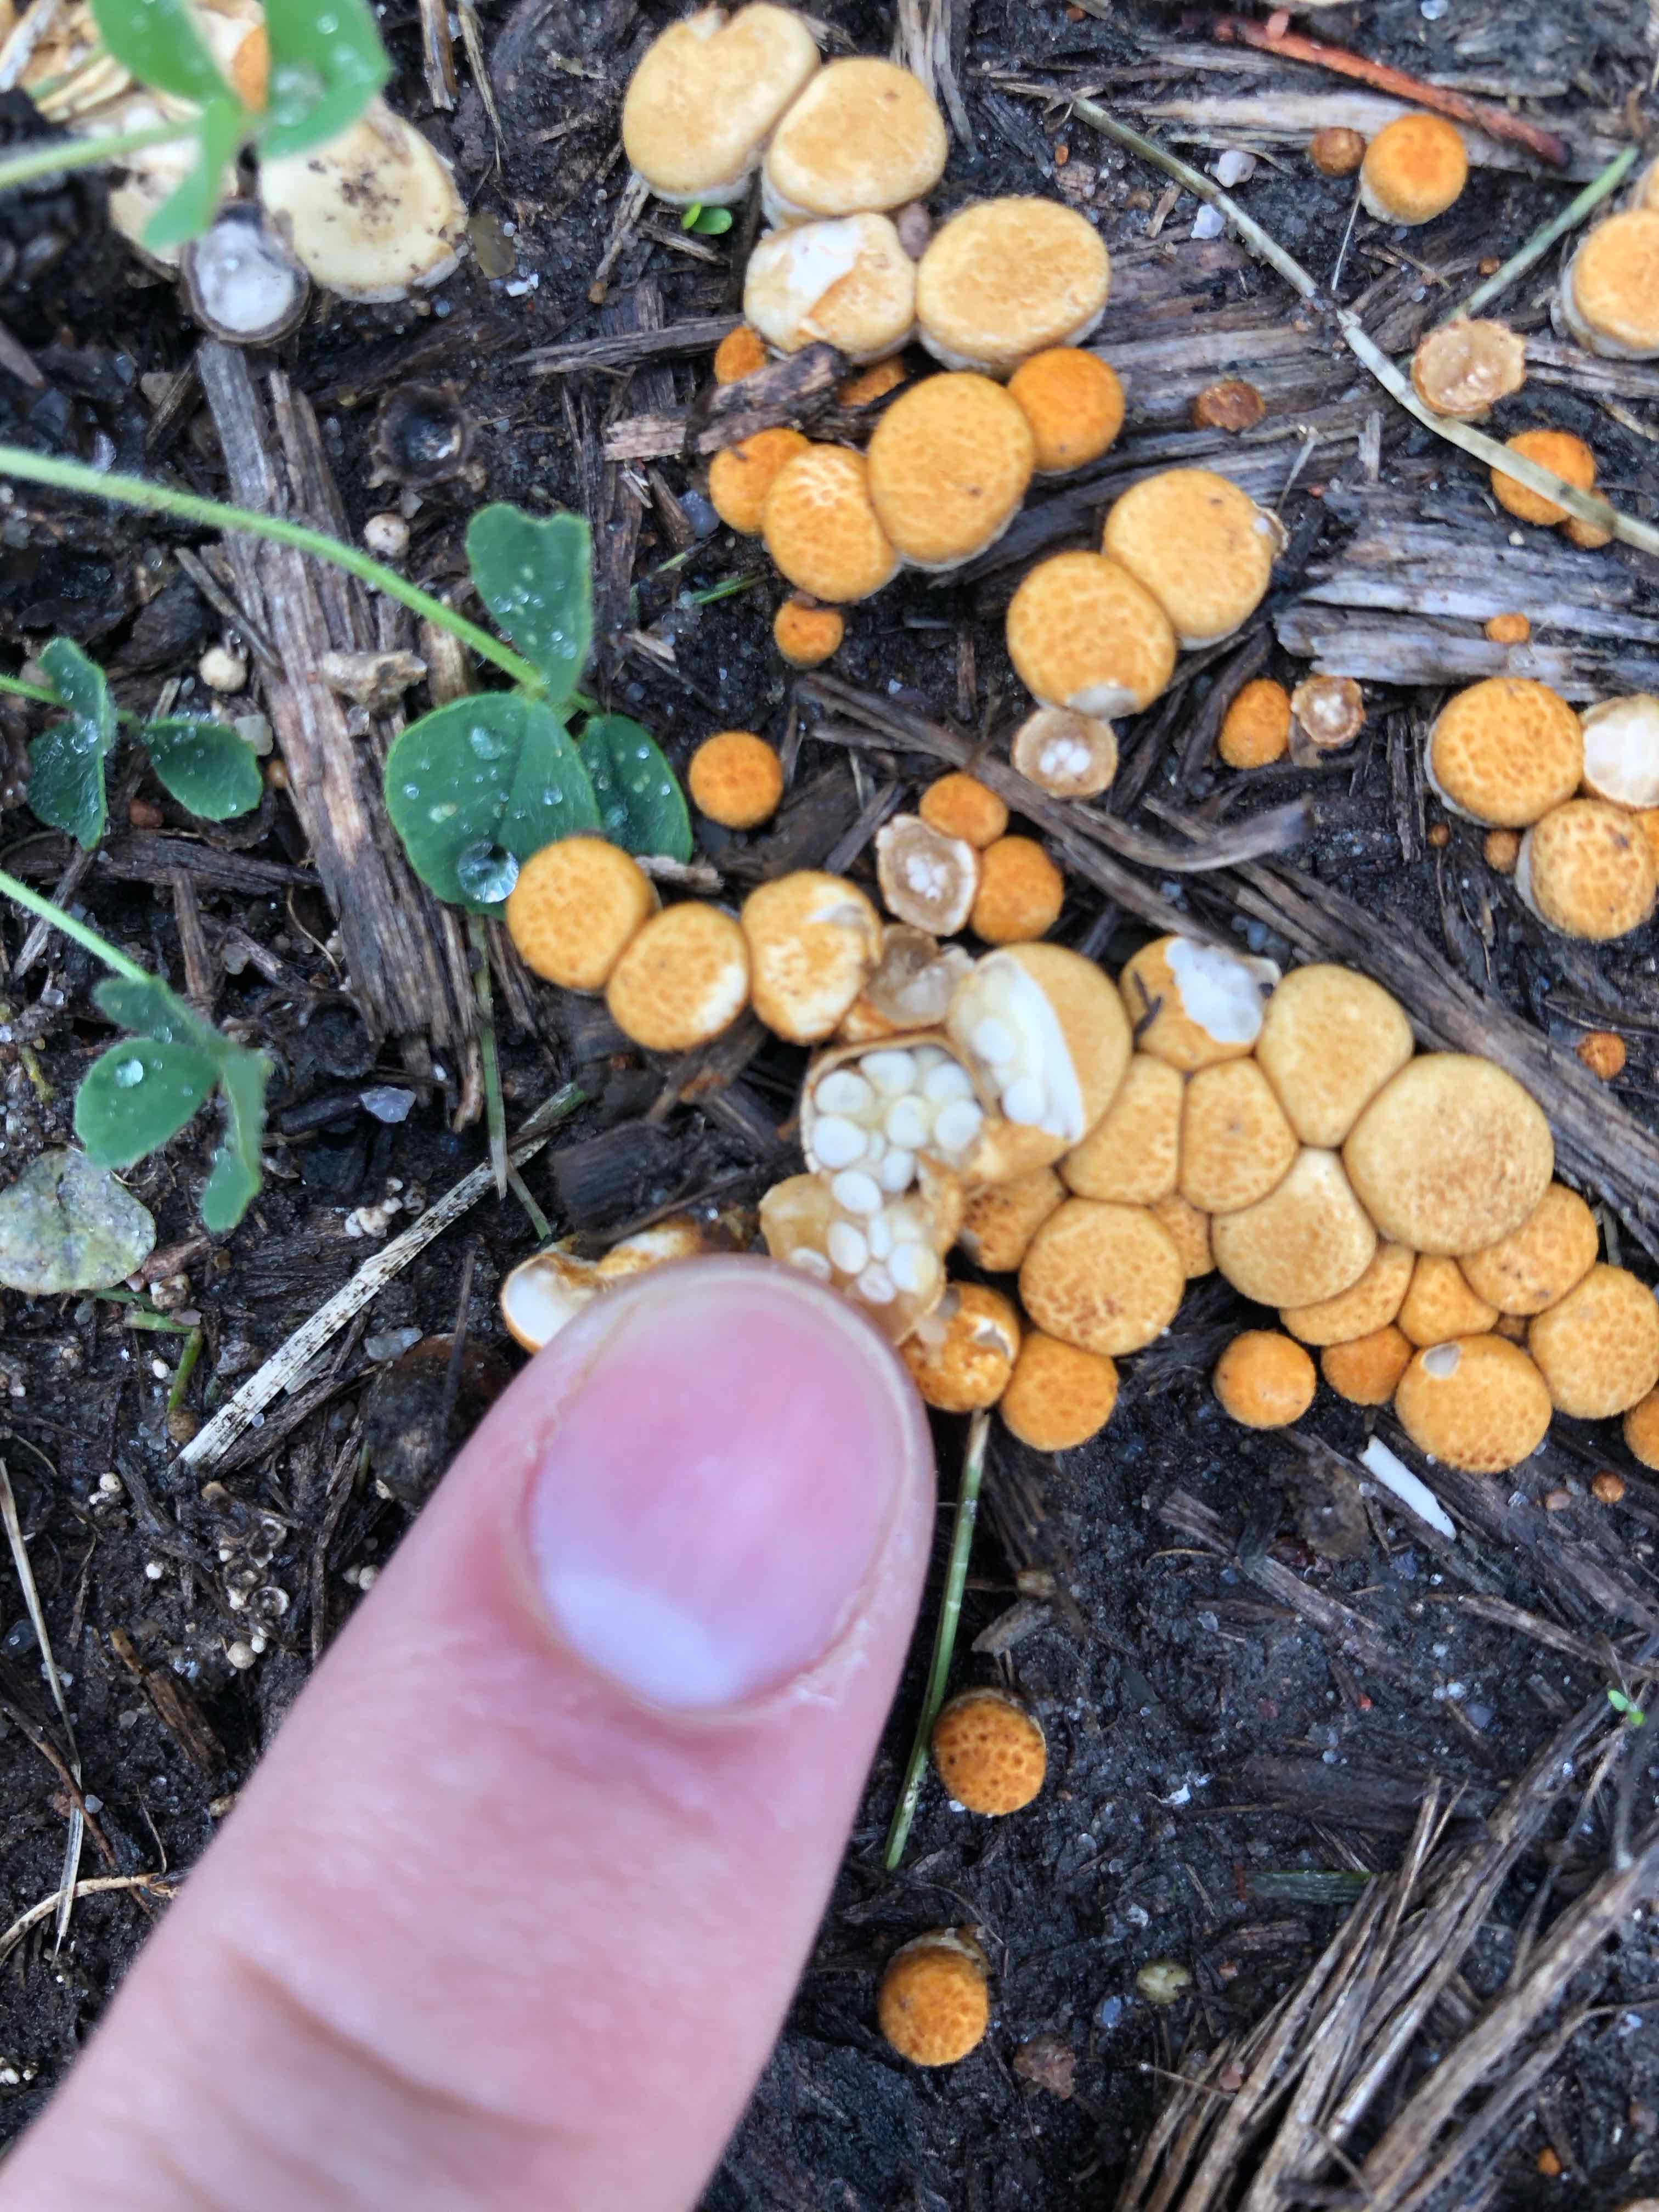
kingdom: Fungi
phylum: Basidiomycota
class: Agaricomycetes
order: Agaricales
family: Nidulariaceae
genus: Crucibulum
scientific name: Crucibulum crucibuliforme
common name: krukkesvamp
